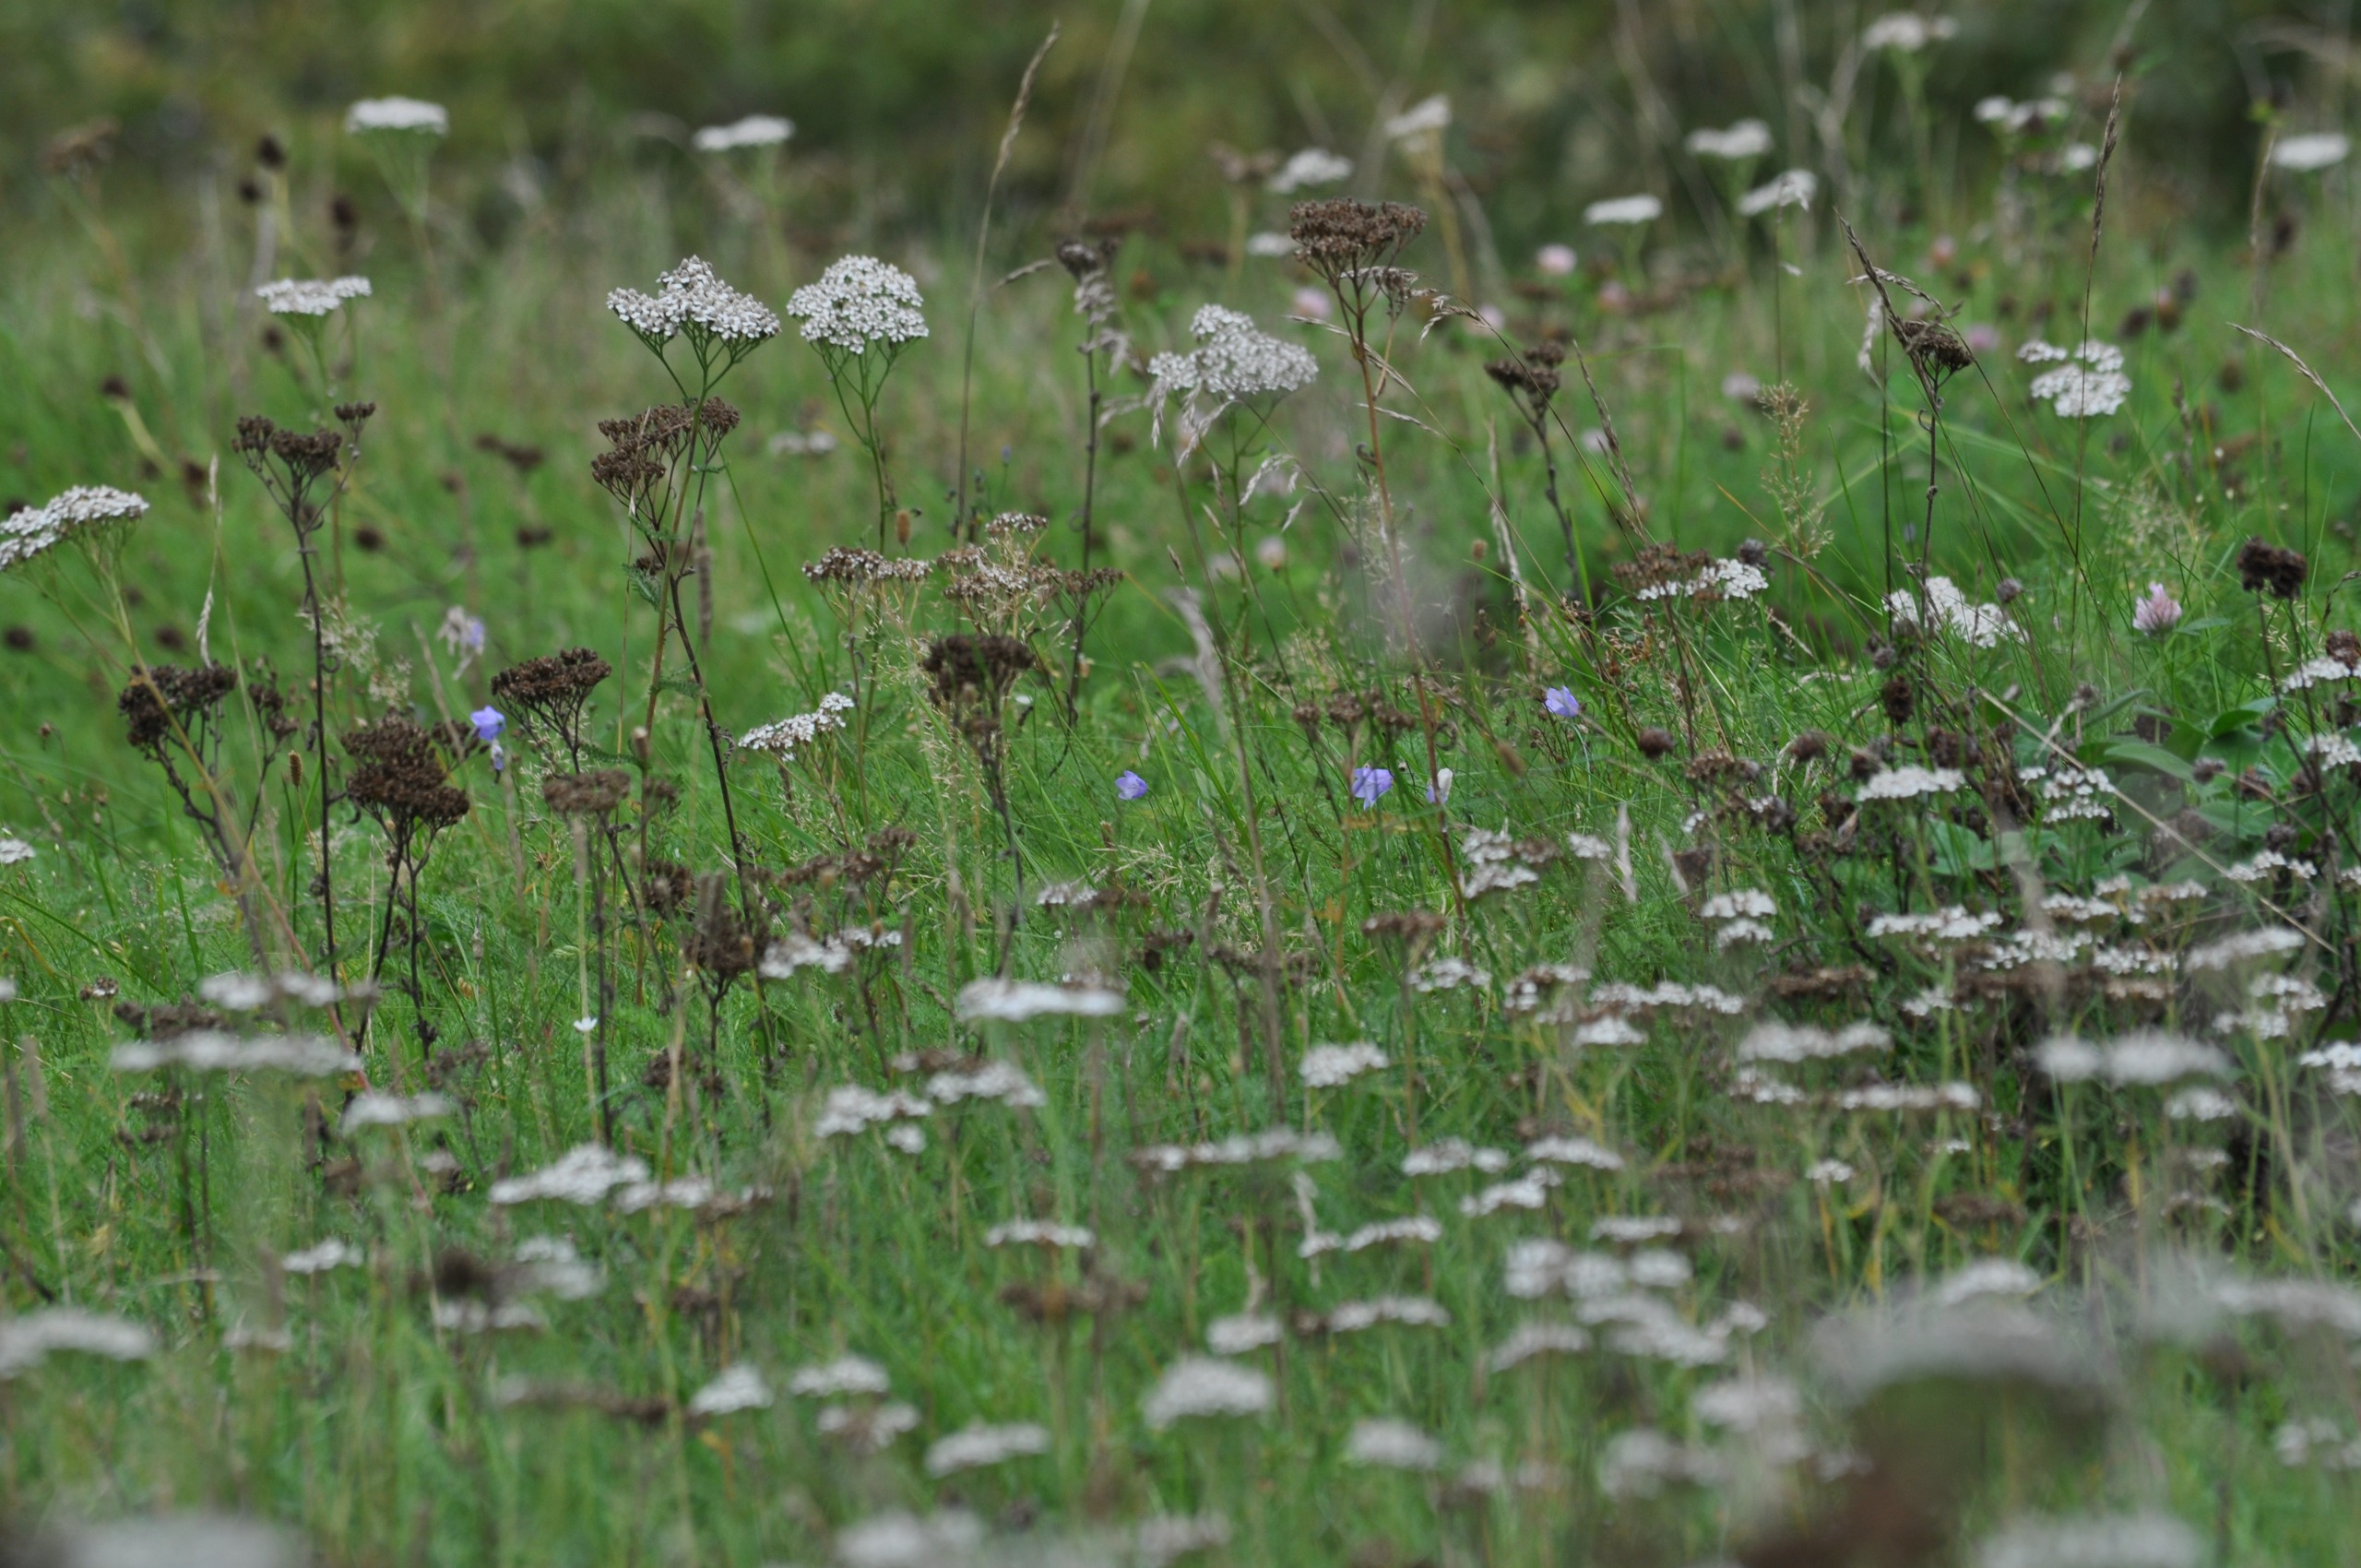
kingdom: Plantae
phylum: Tracheophyta
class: Magnoliopsida
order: Asterales
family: Asteraceae
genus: Achillea
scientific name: Achillea millefolium
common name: Almindelig røllike
